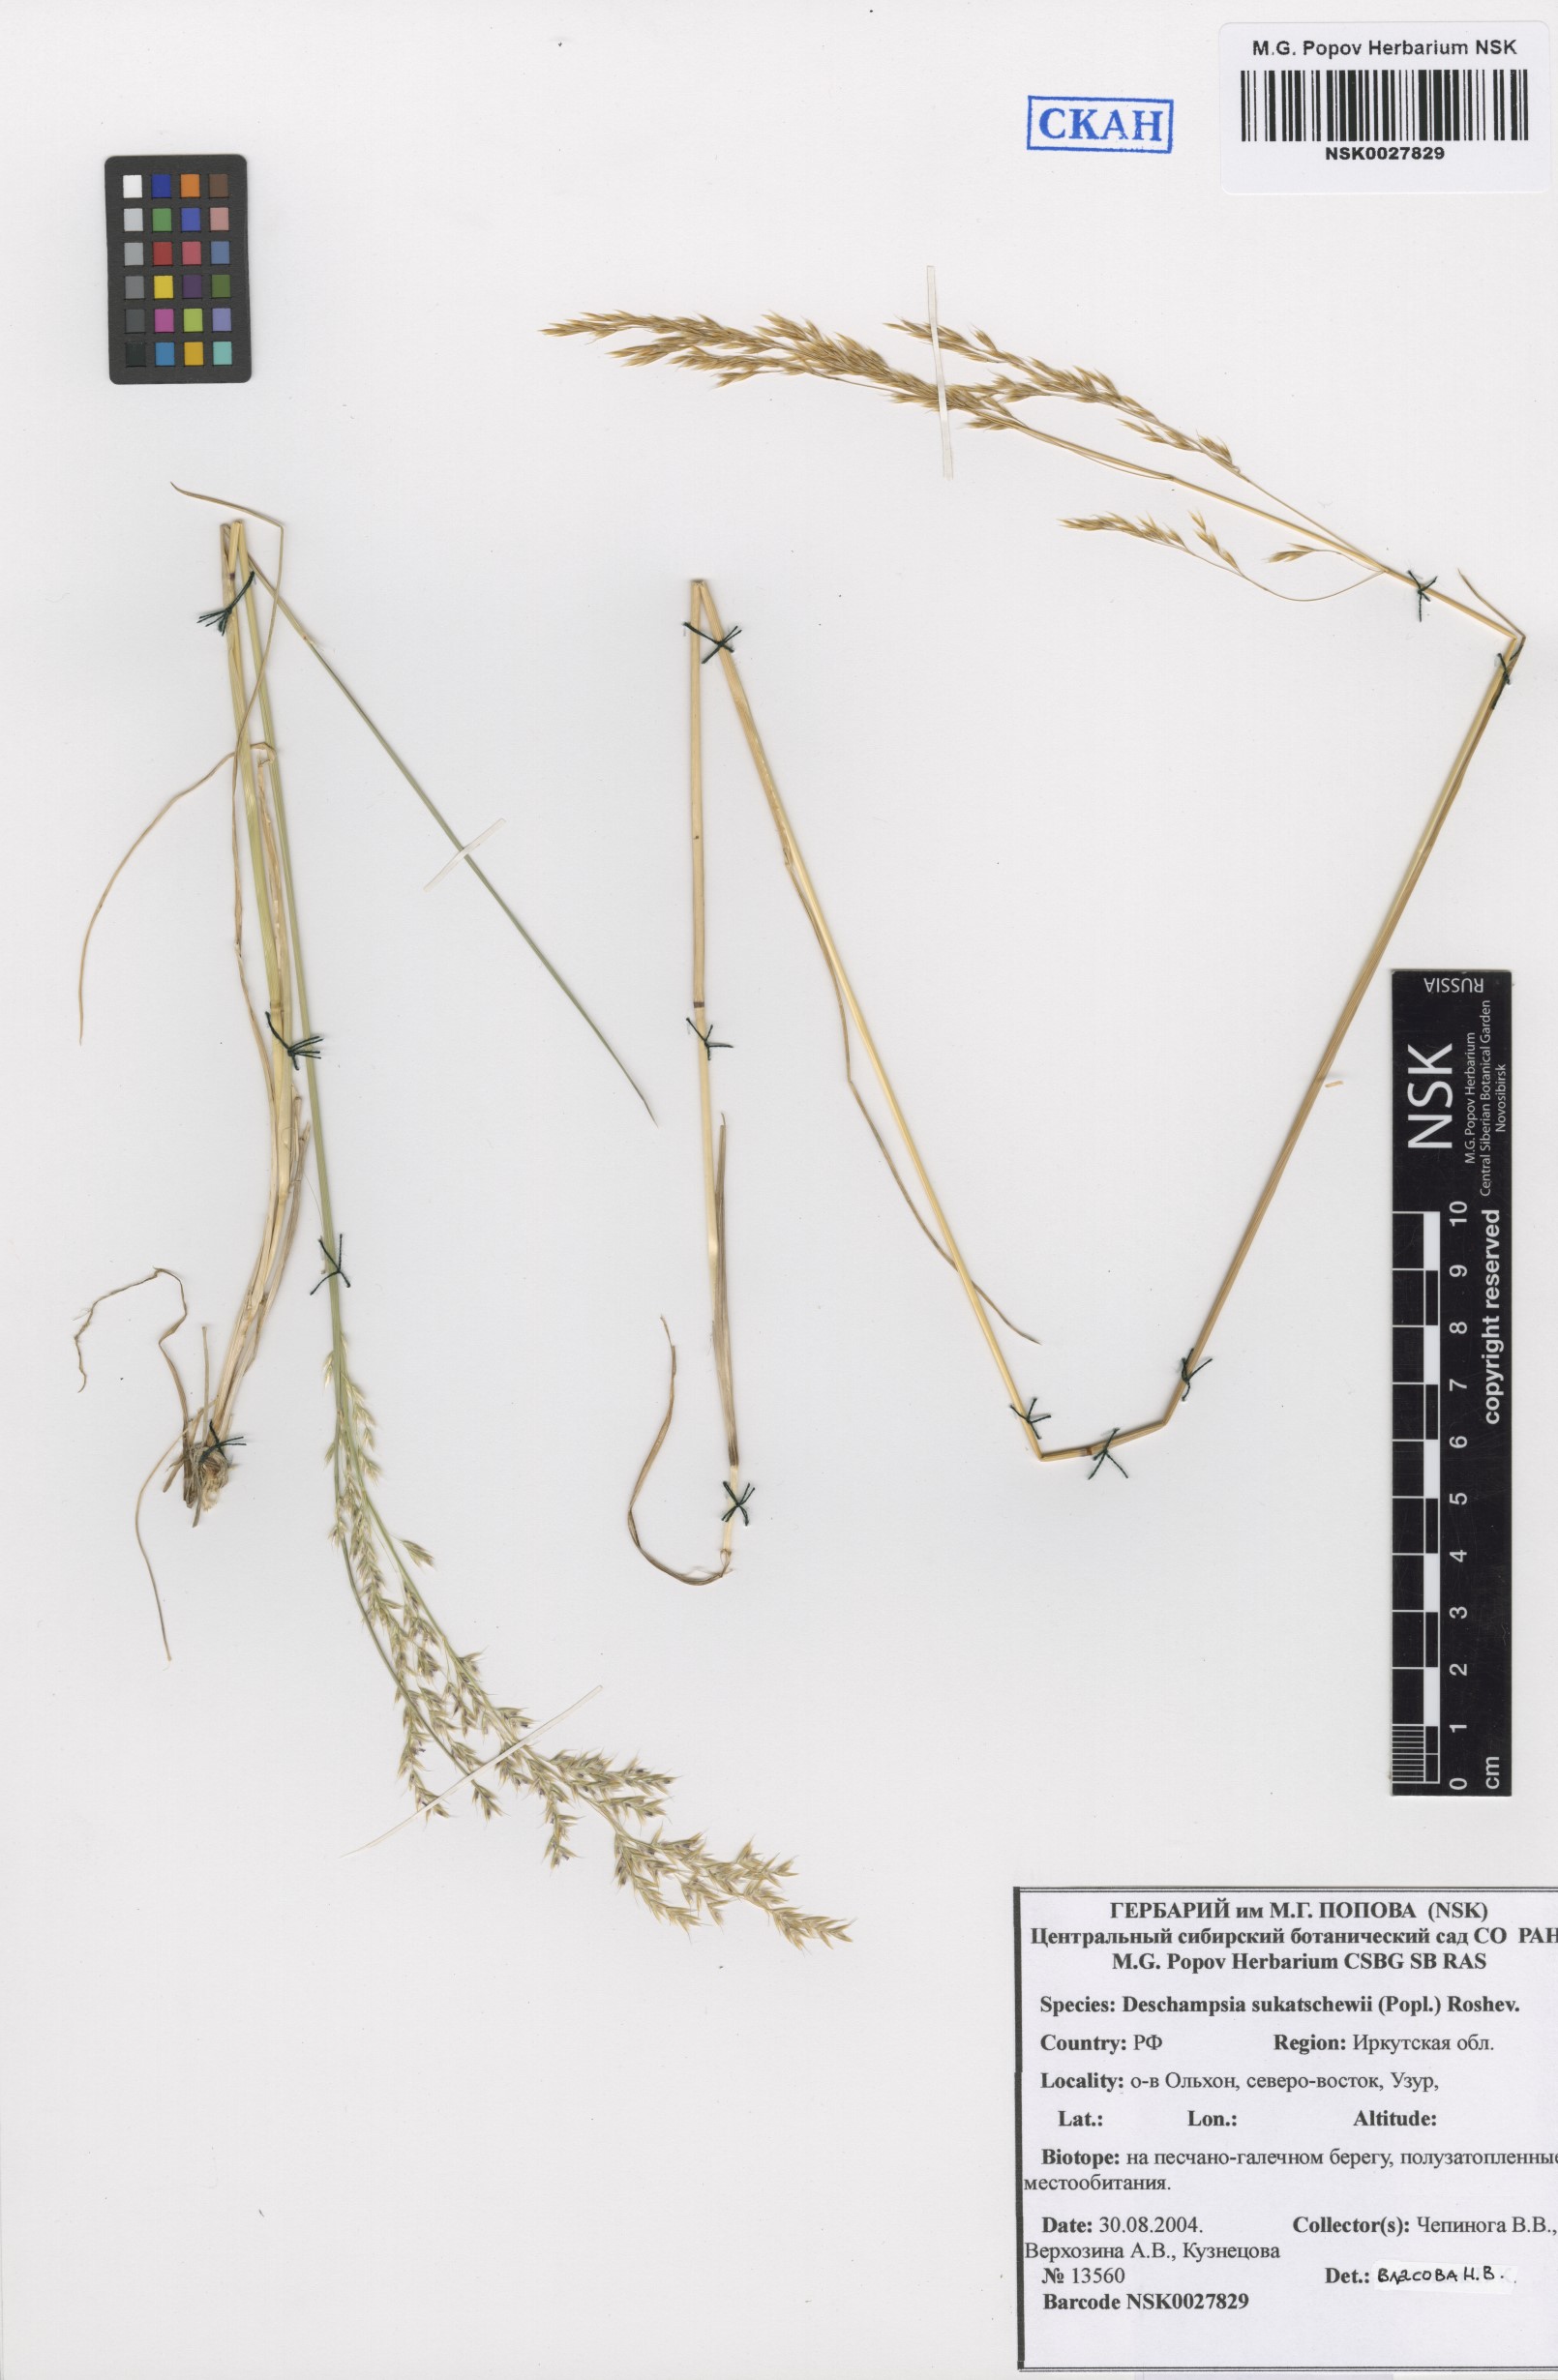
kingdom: Plantae
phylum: Tracheophyta
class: Liliopsida
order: Poales
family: Poaceae
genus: Deschampsia
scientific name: Deschampsia cespitosa
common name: Tufted hair-grass
